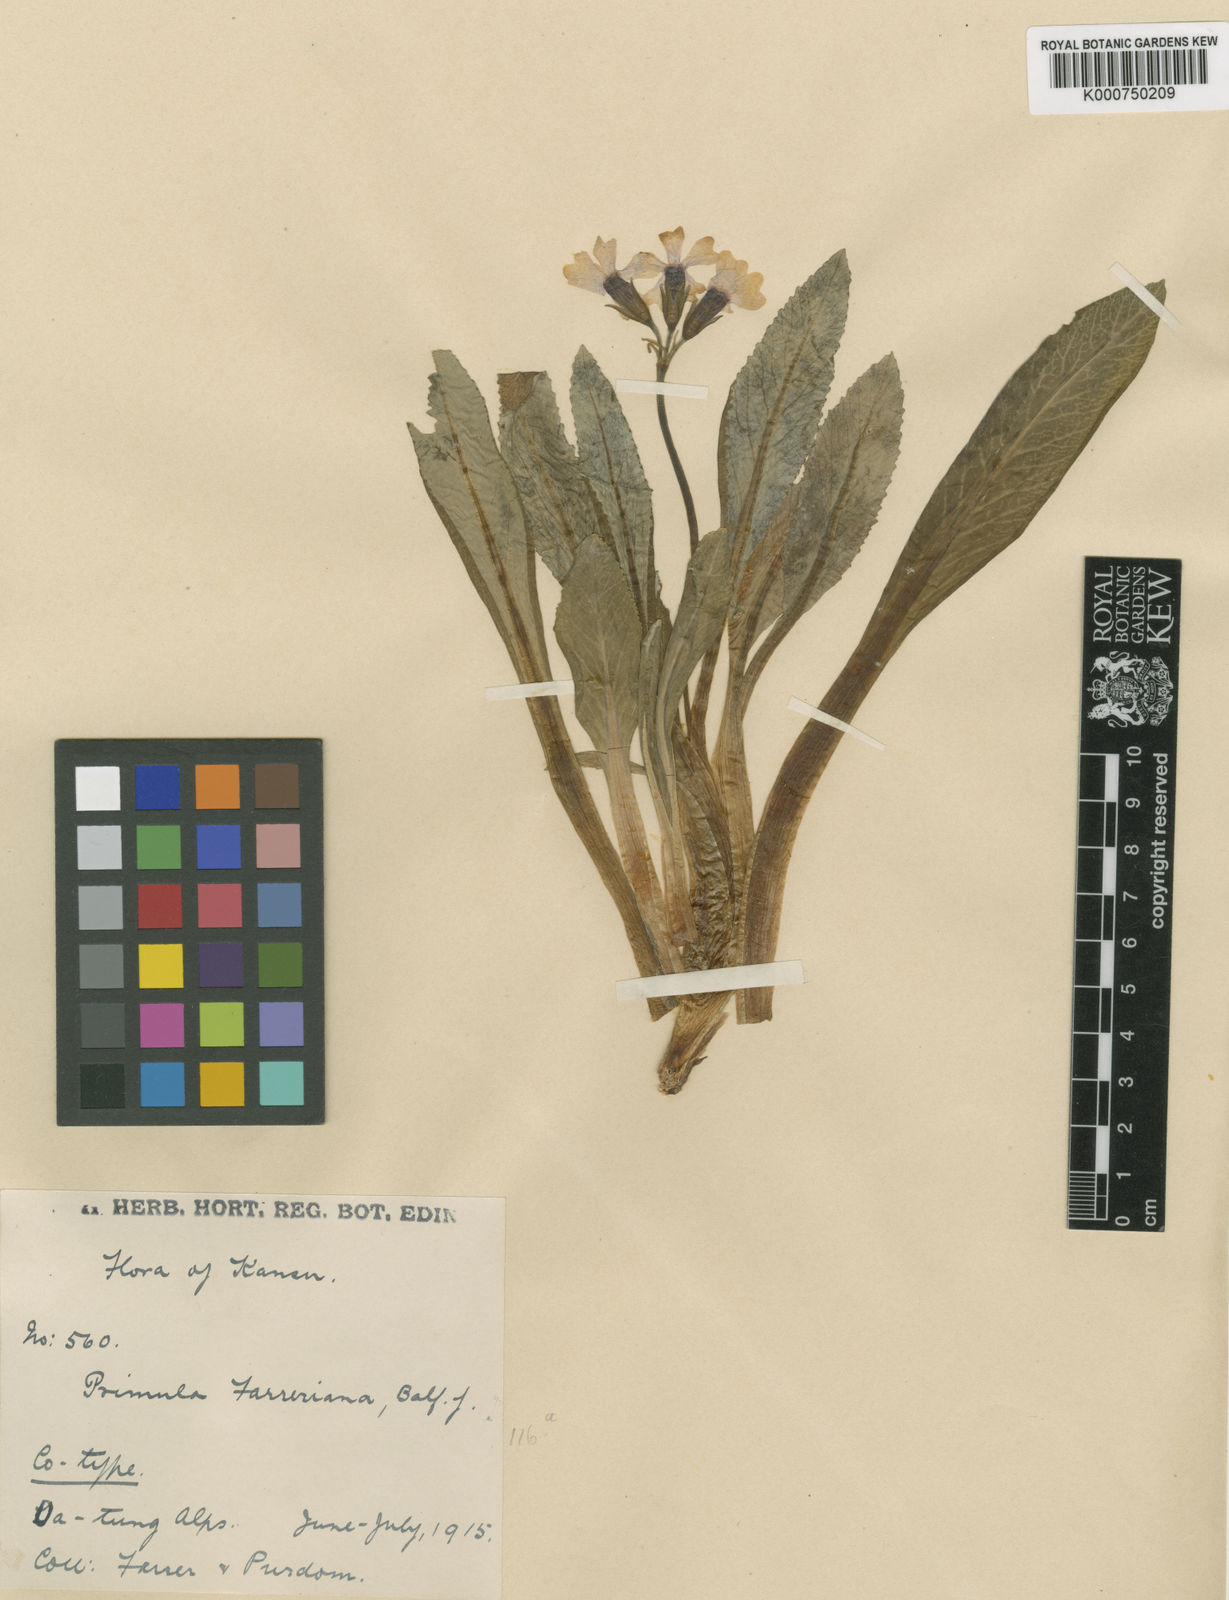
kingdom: Plantae
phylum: Tracheophyta
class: Magnoliopsida
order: Ericales
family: Primulaceae
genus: Primula
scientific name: Primula farreriana
